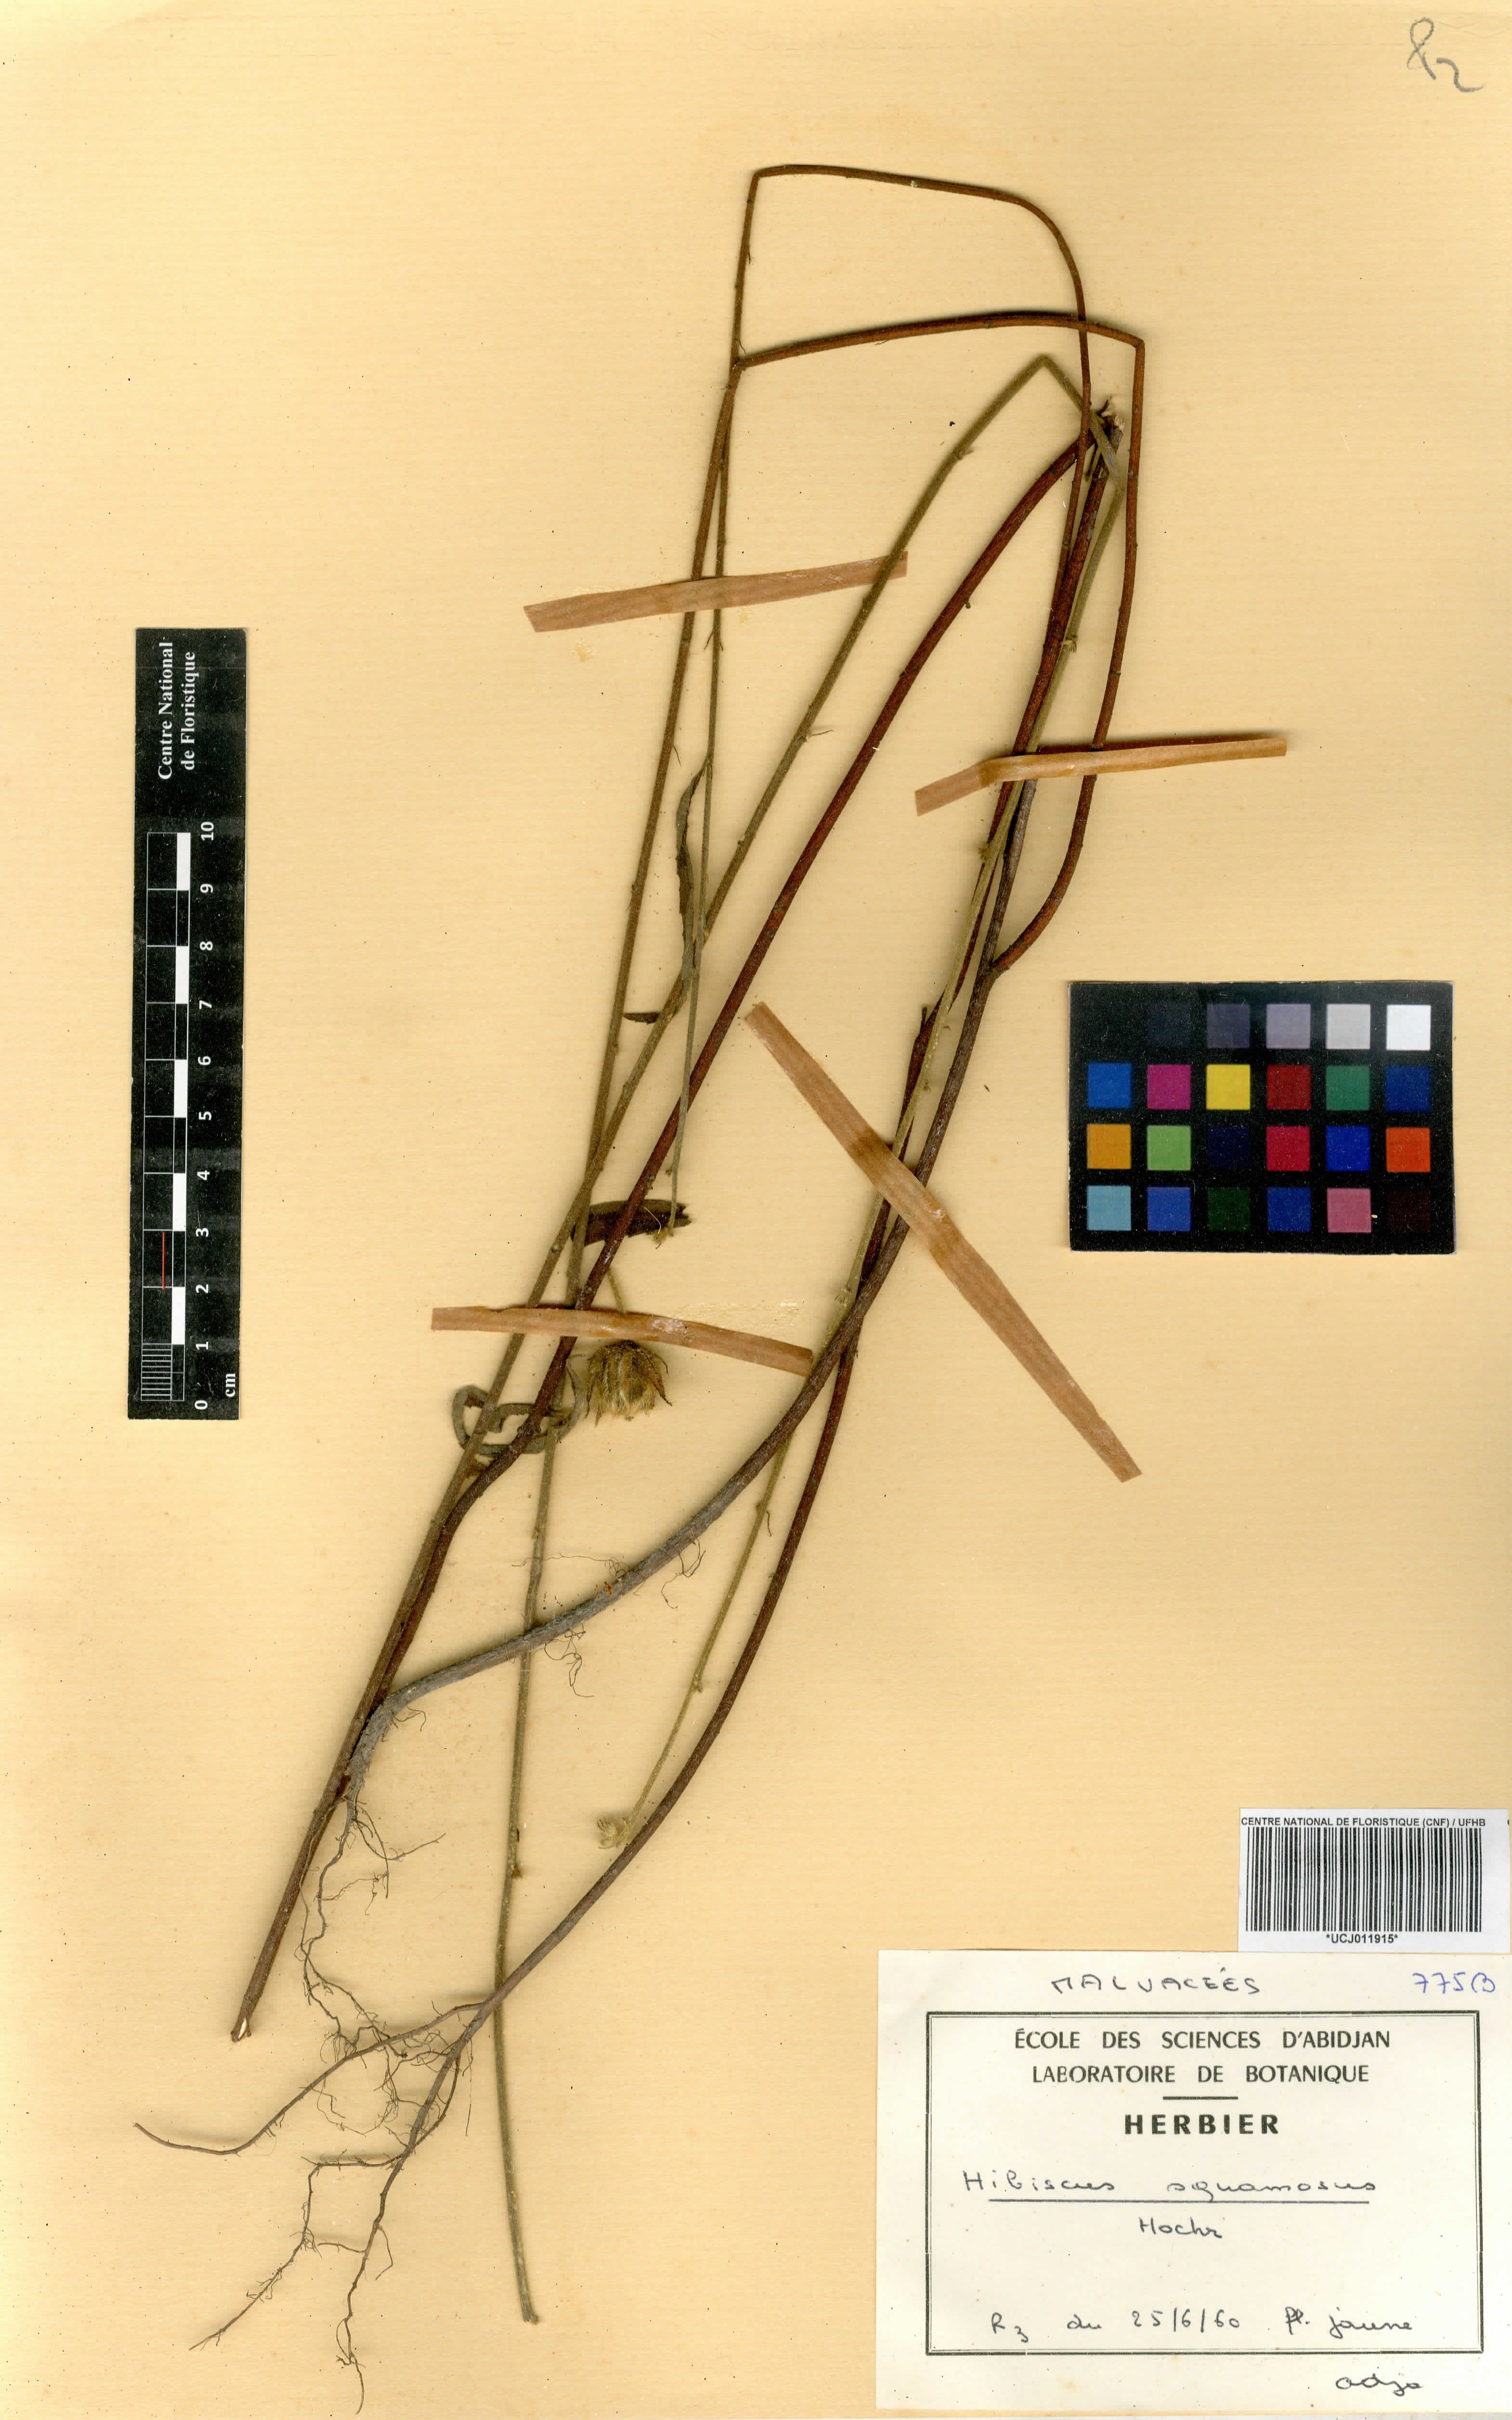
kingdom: Plantae
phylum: Tracheophyta
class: Magnoliopsida
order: Malvales
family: Malvaceae
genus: Hibiscus
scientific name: Hibiscus squamosus
